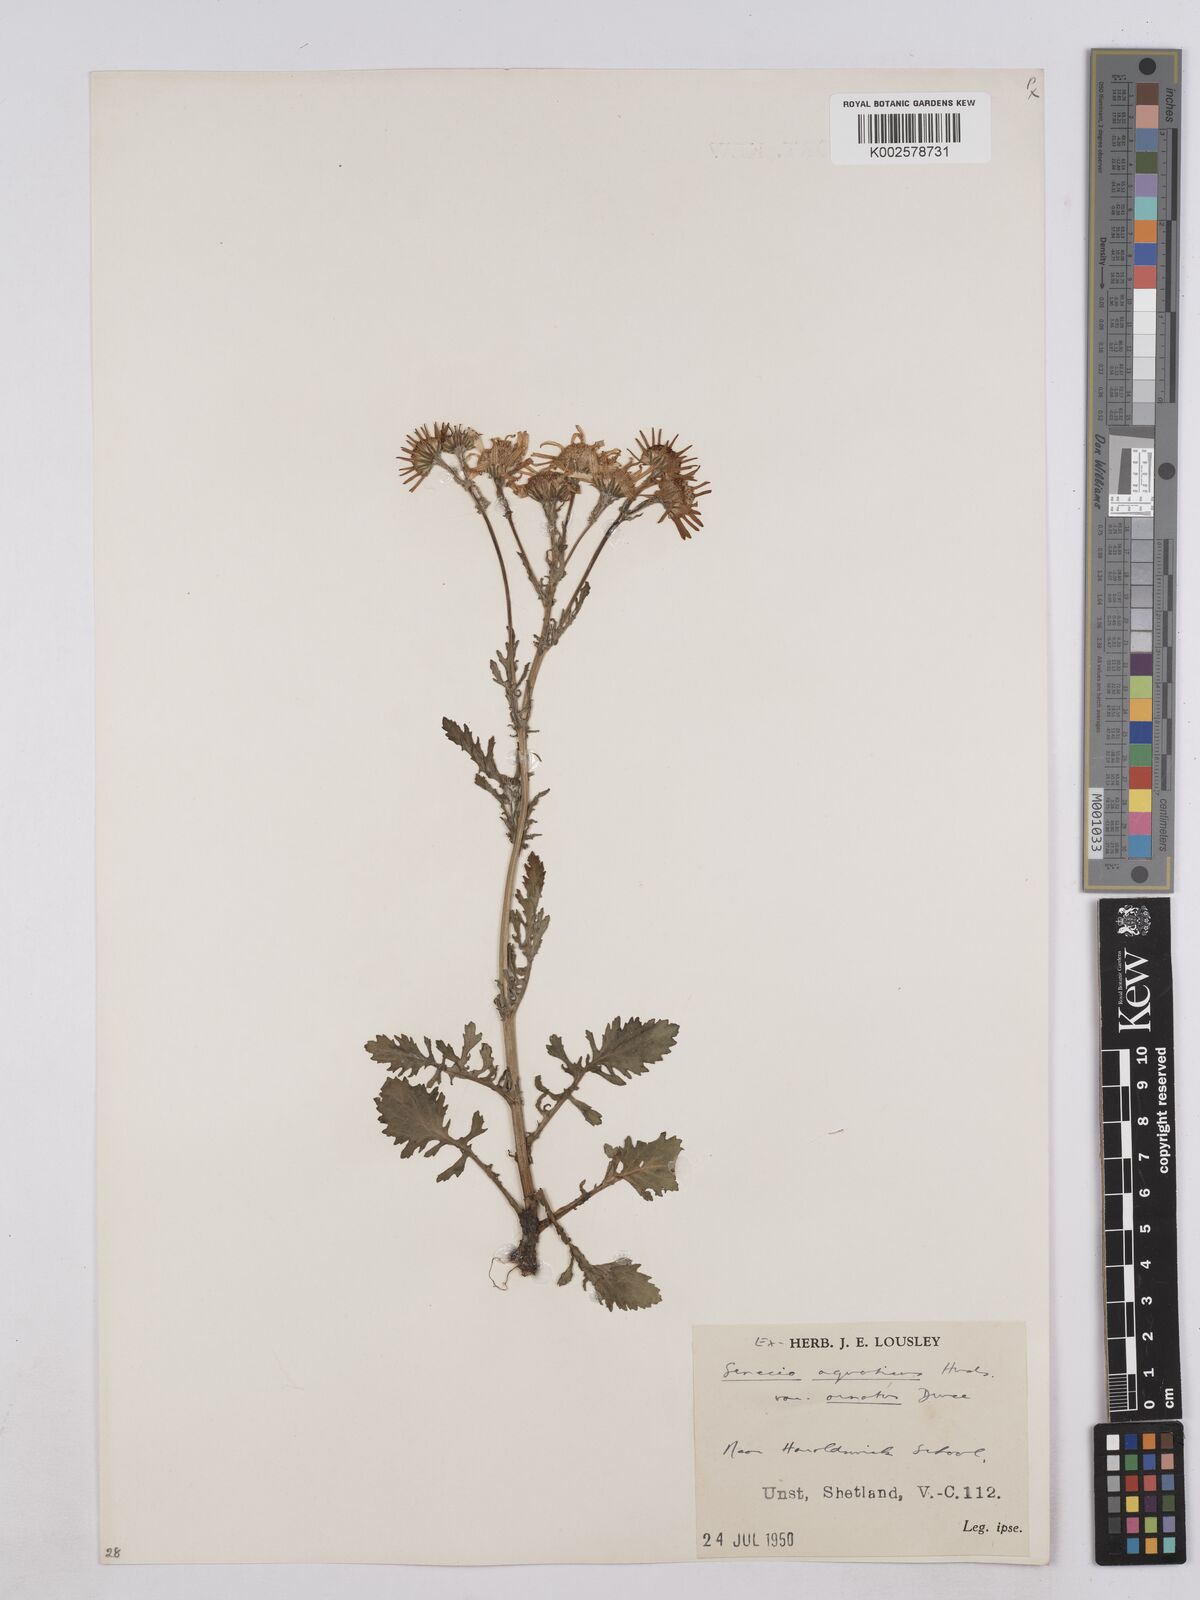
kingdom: Plantae
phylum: Tracheophyta
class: Magnoliopsida
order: Asterales
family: Asteraceae
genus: Jacobaea
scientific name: Jacobaea aquatica
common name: Water ragwort
